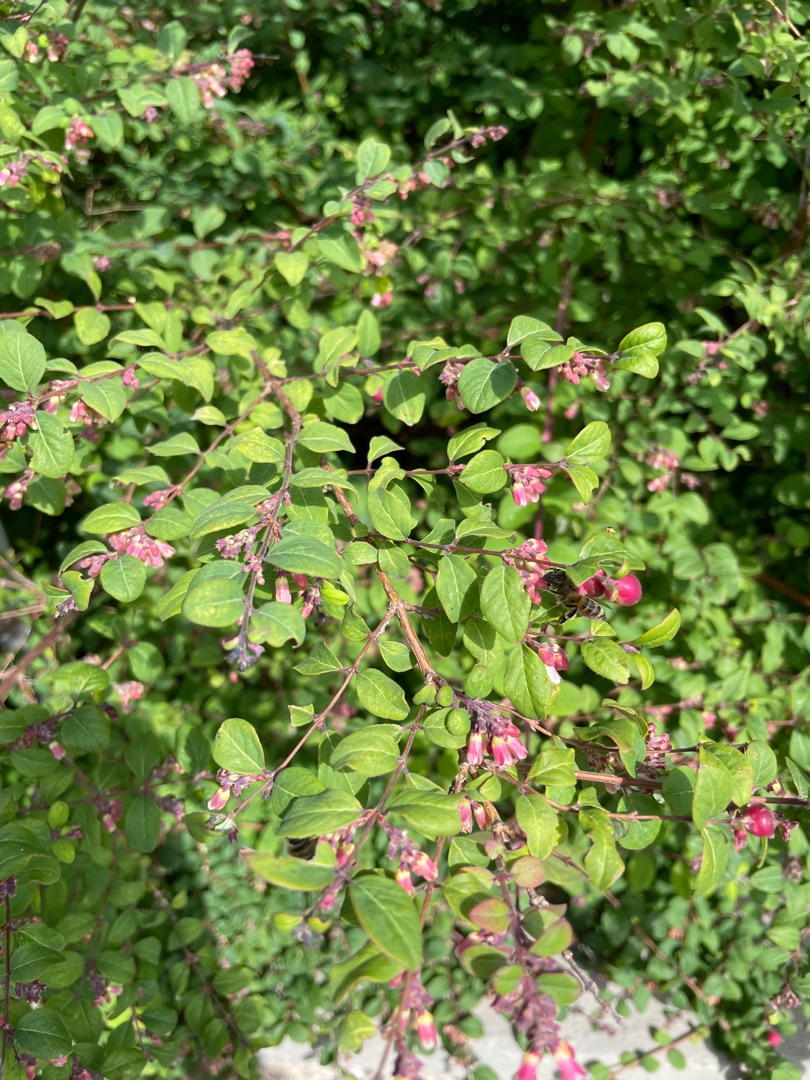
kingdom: Plantae
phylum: Tracheophyta
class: Magnoliopsida
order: Dipsacales
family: Caprifoliaceae
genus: Symphoricarpos
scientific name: Symphoricarpos chenaultii
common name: Rød snebær
